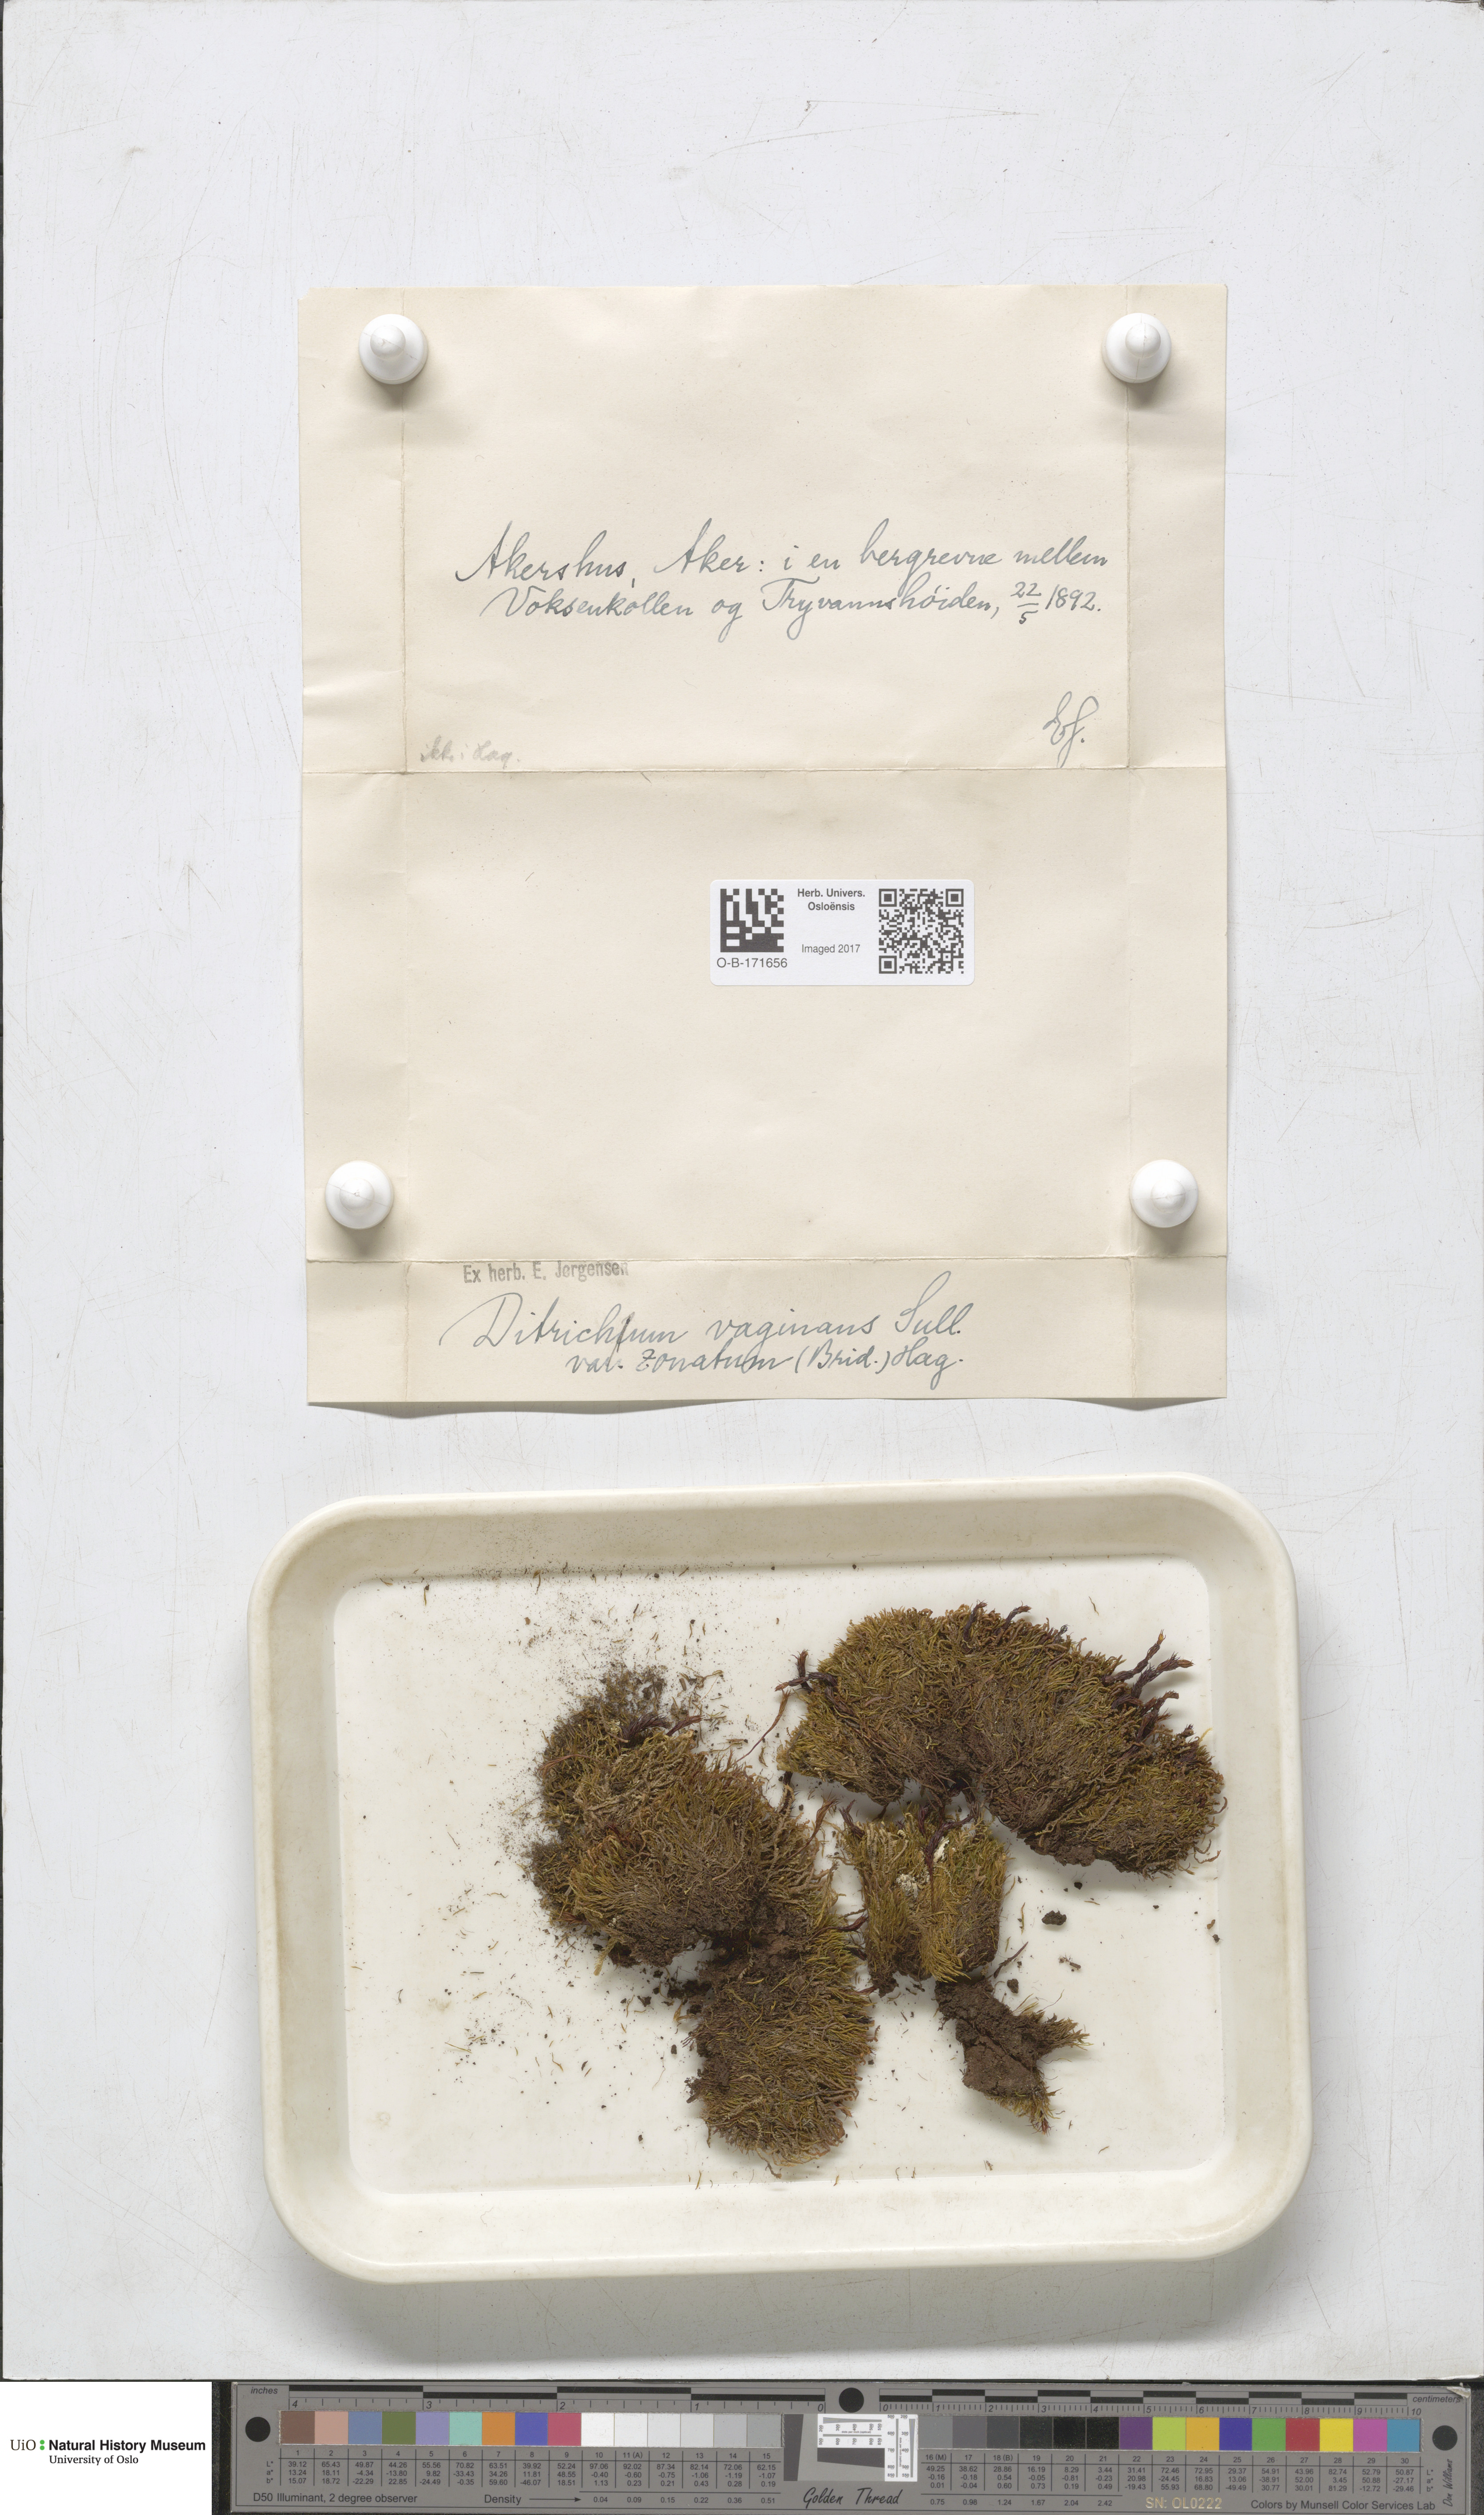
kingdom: Plantae
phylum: Bryophyta
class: Bryopsida
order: Dicranales
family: Ditrichaceae
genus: Ditrichum
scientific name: Ditrichum zonatum
